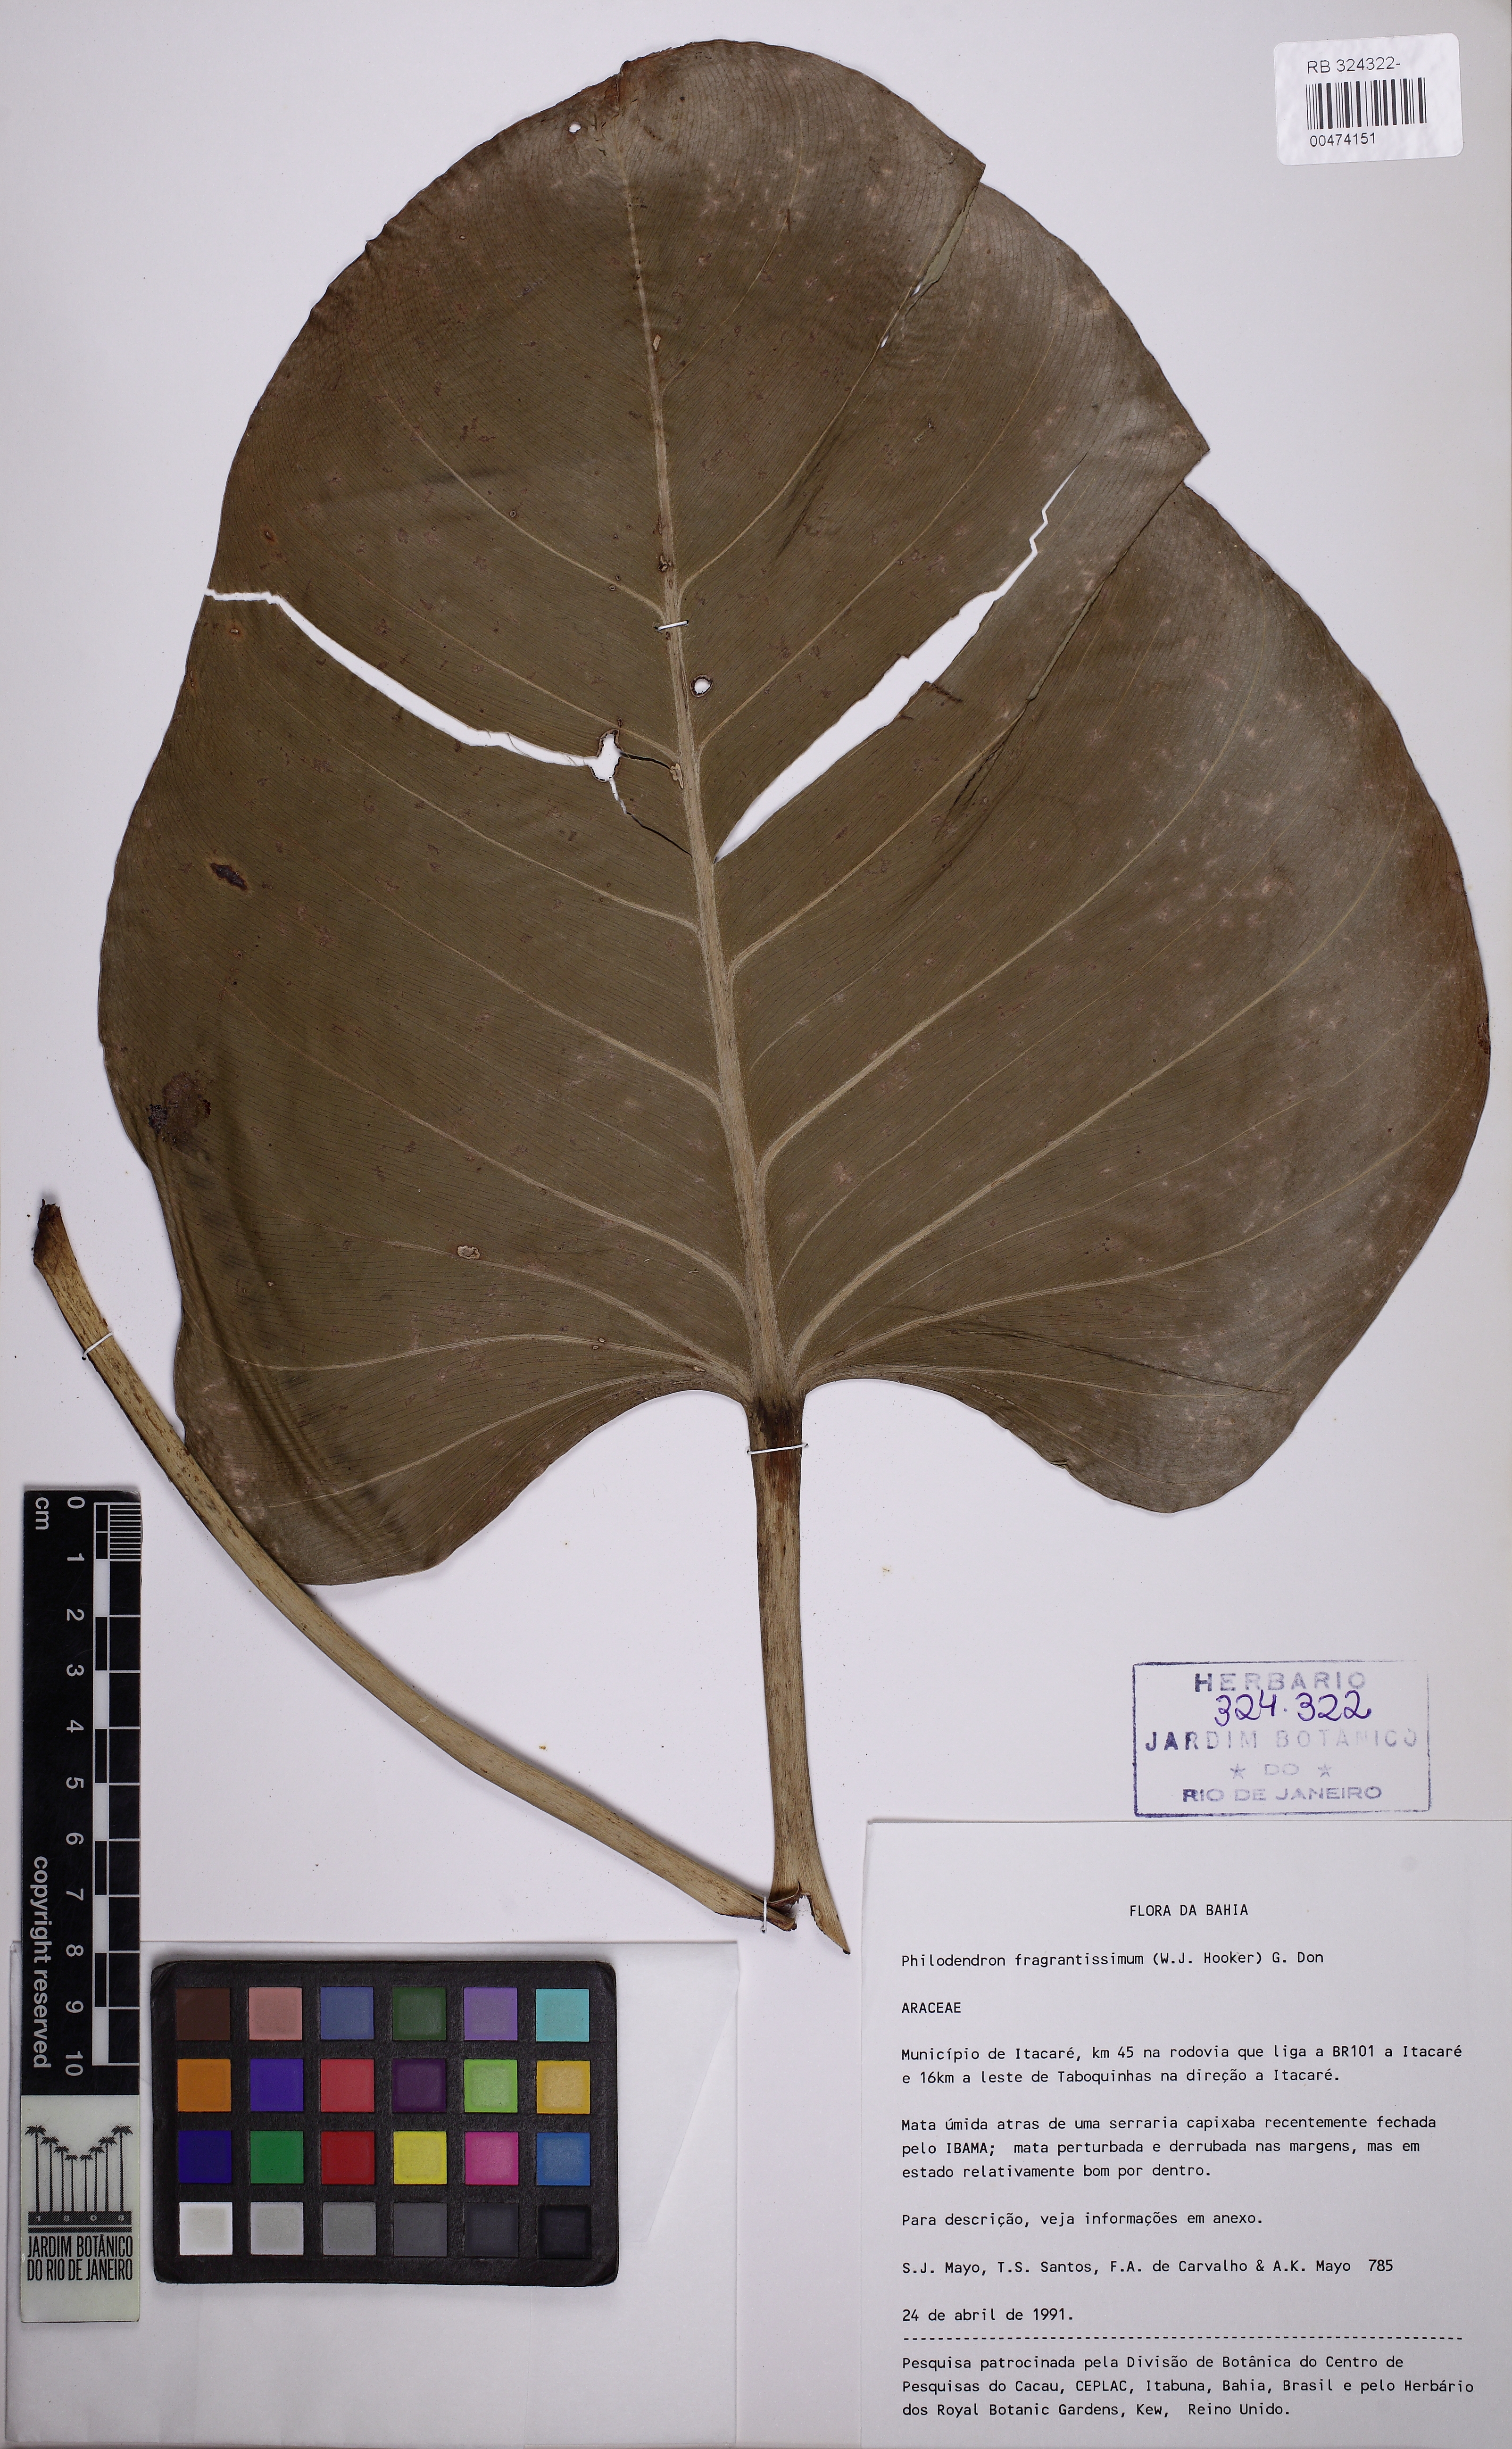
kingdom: Plantae
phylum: Tracheophyta
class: Liliopsida
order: Alismatales
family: Araceae
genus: Philodendron
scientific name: Philodendron fragrantissimum
